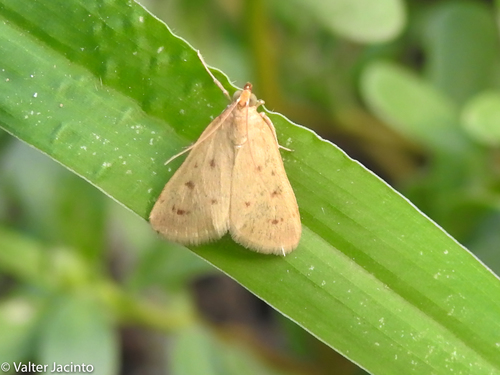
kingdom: Animalia
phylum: Arthropoda
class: Insecta
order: Lepidoptera
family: Crambidae
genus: Achyra
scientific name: Achyra nudalis
